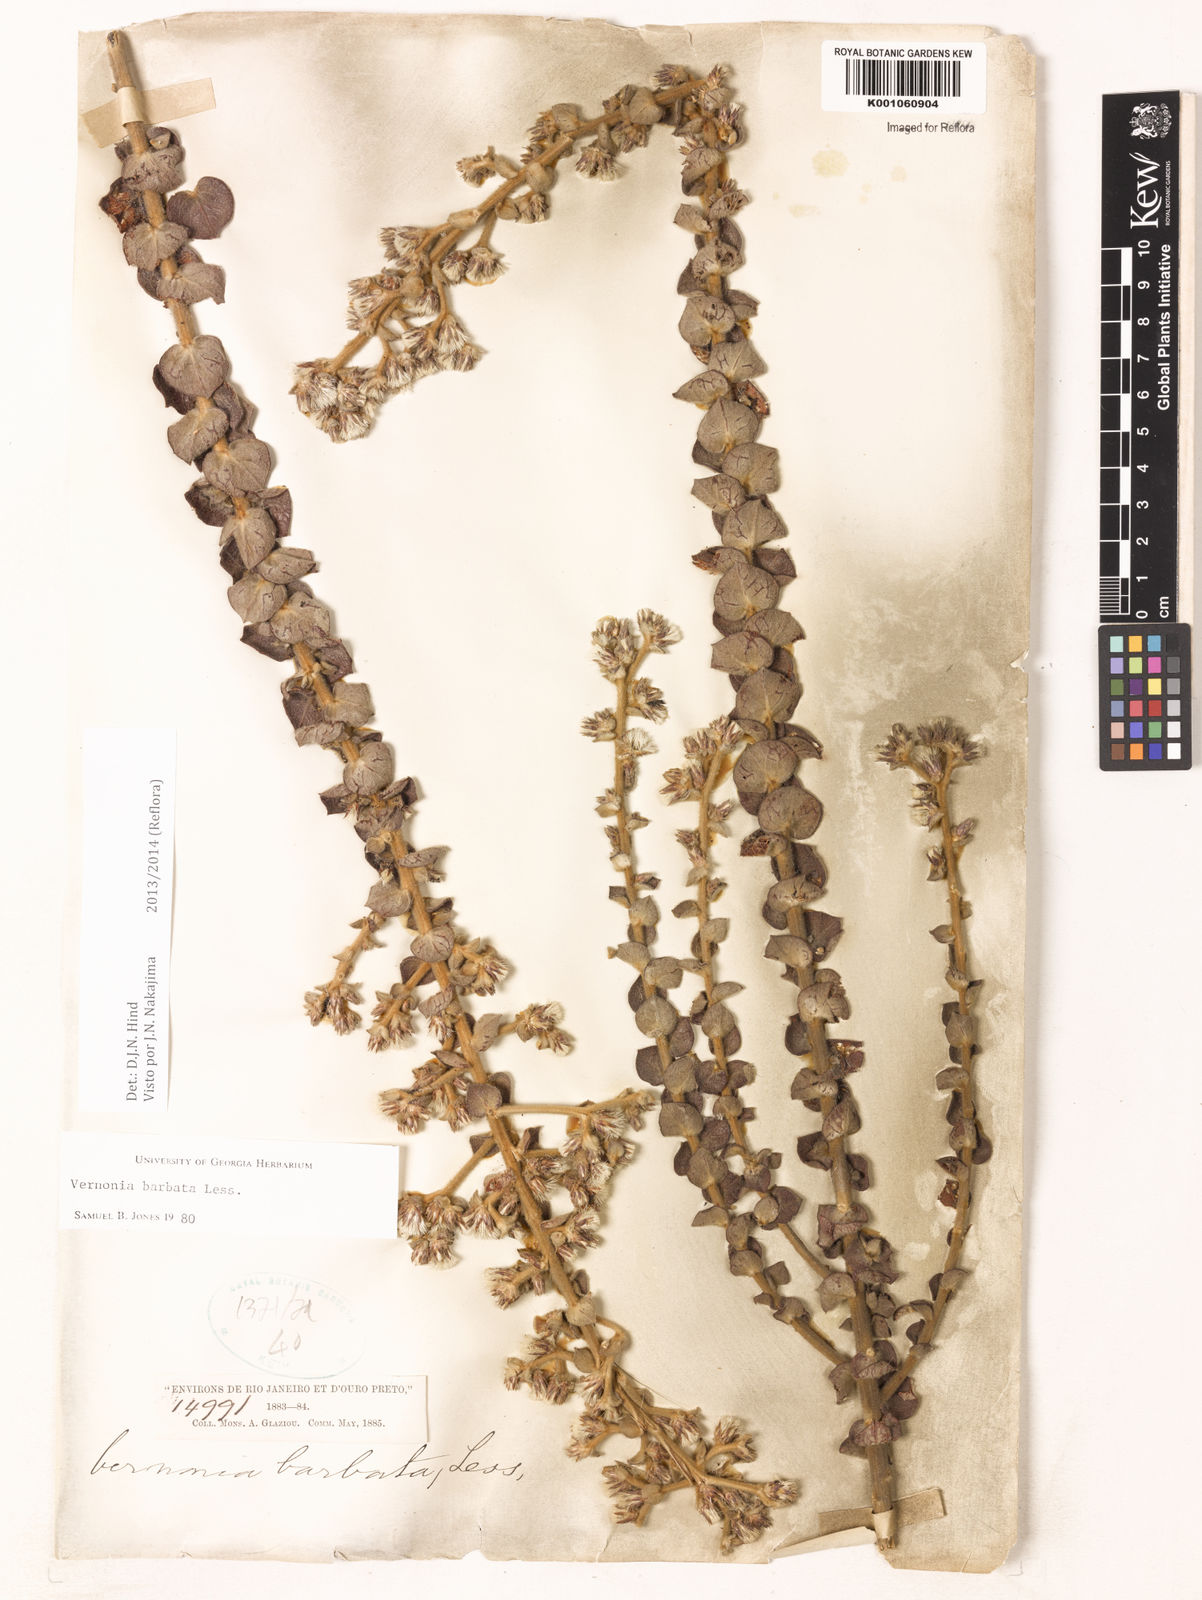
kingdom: Plantae
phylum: Tracheophyta
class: Magnoliopsida
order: Asterales
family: Asteraceae
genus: Lepidaploa
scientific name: Lepidaploa barbata
